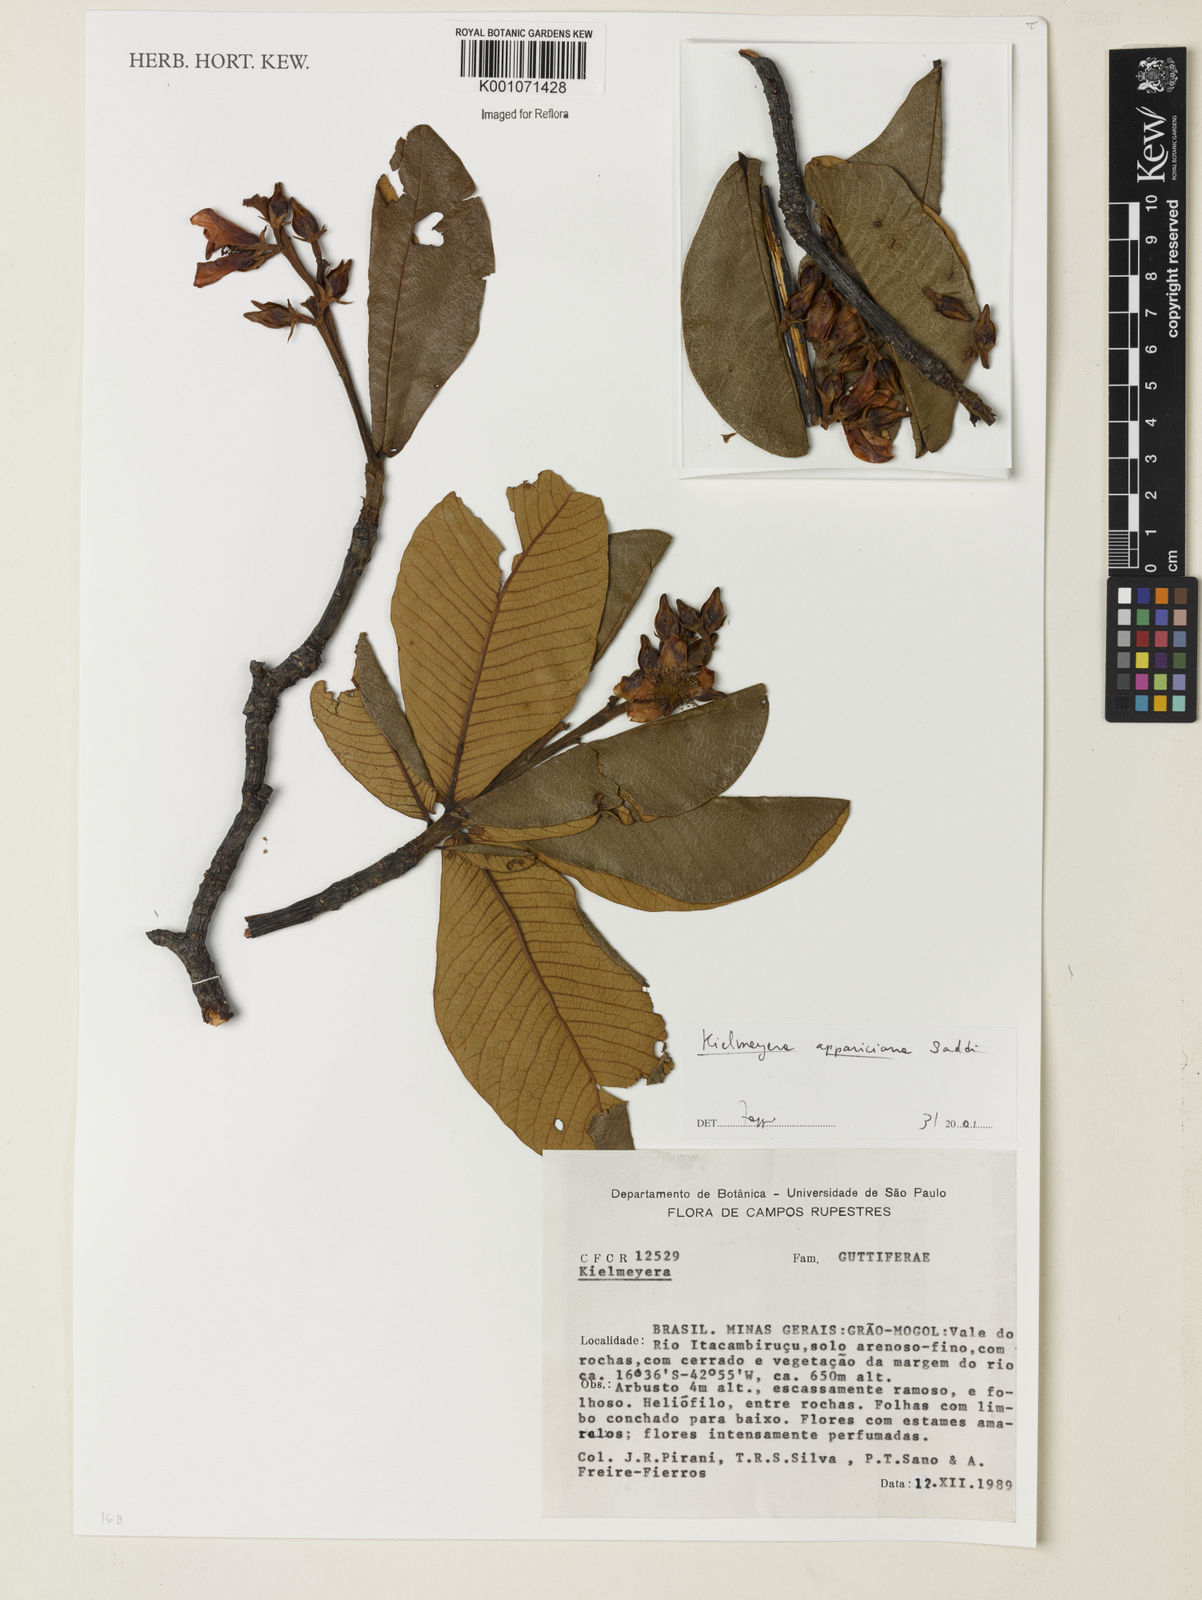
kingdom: Plantae
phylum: Tracheophyta
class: Magnoliopsida
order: Malpighiales
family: Calophyllaceae
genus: Kielmeyera
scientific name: Kielmeyera appariciana
